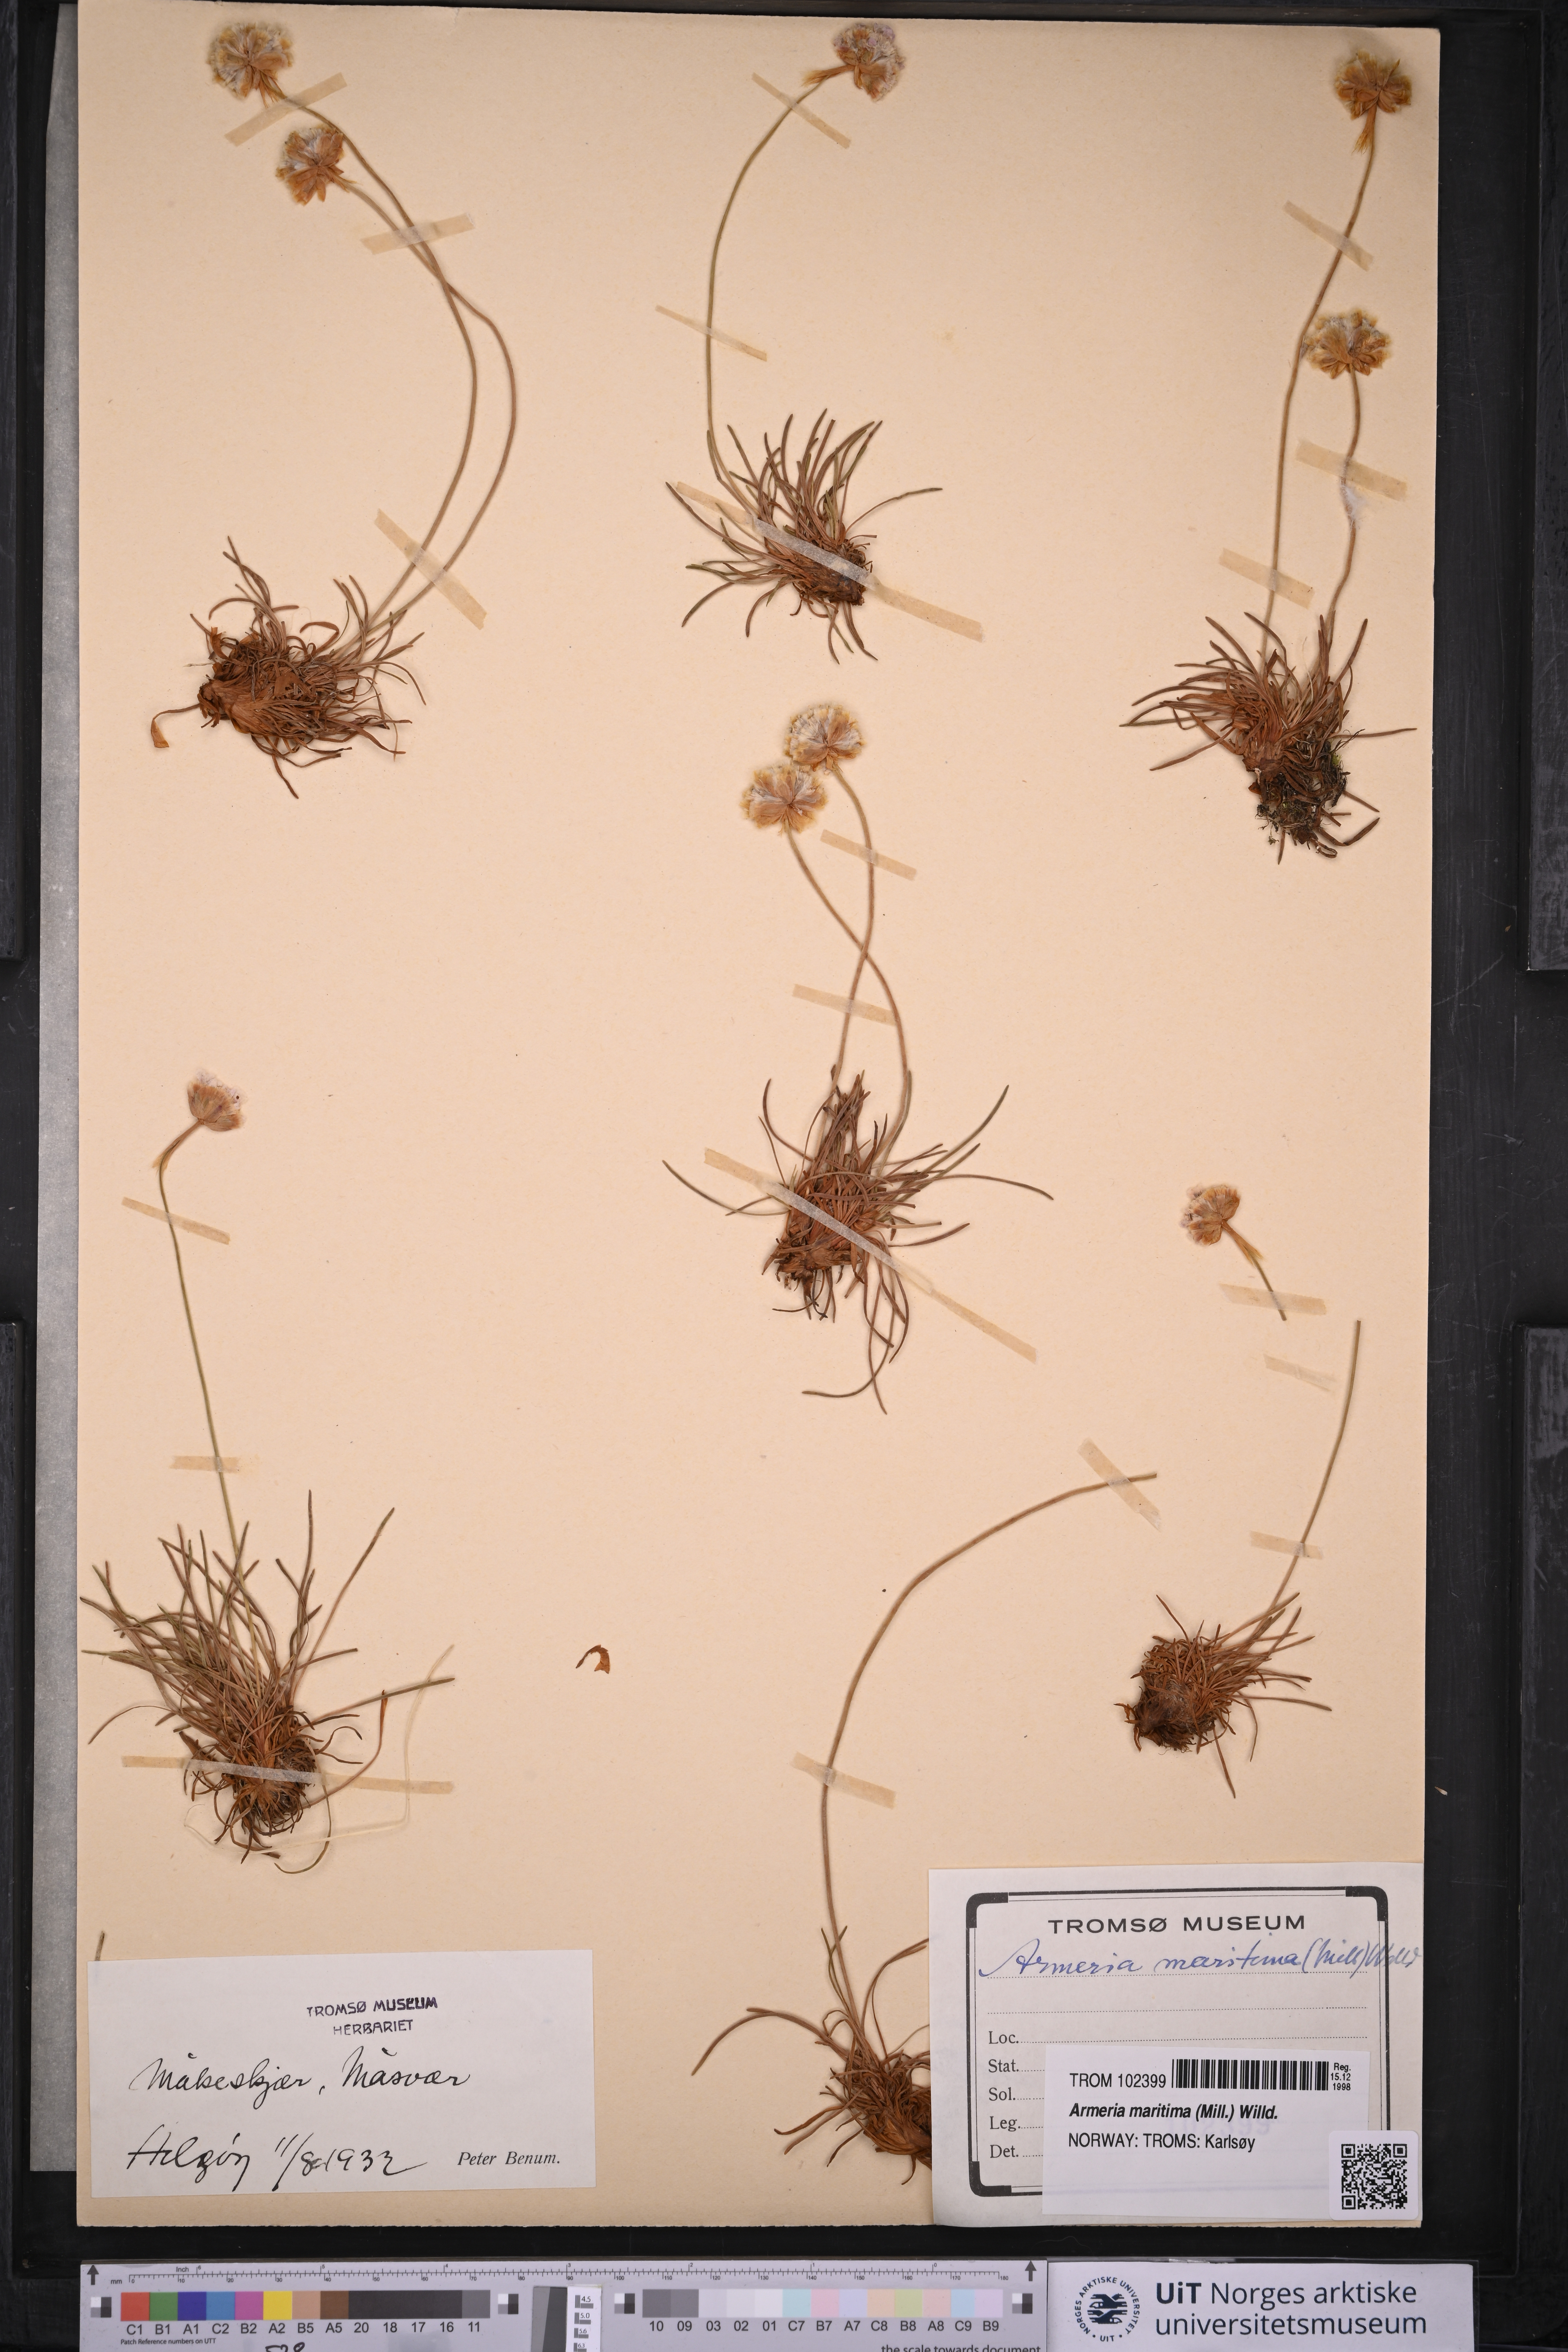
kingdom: Plantae
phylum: Tracheophyta
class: Magnoliopsida
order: Caryophyllales
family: Plumbaginaceae
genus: Armeria
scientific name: Armeria maritima
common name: Thrift
